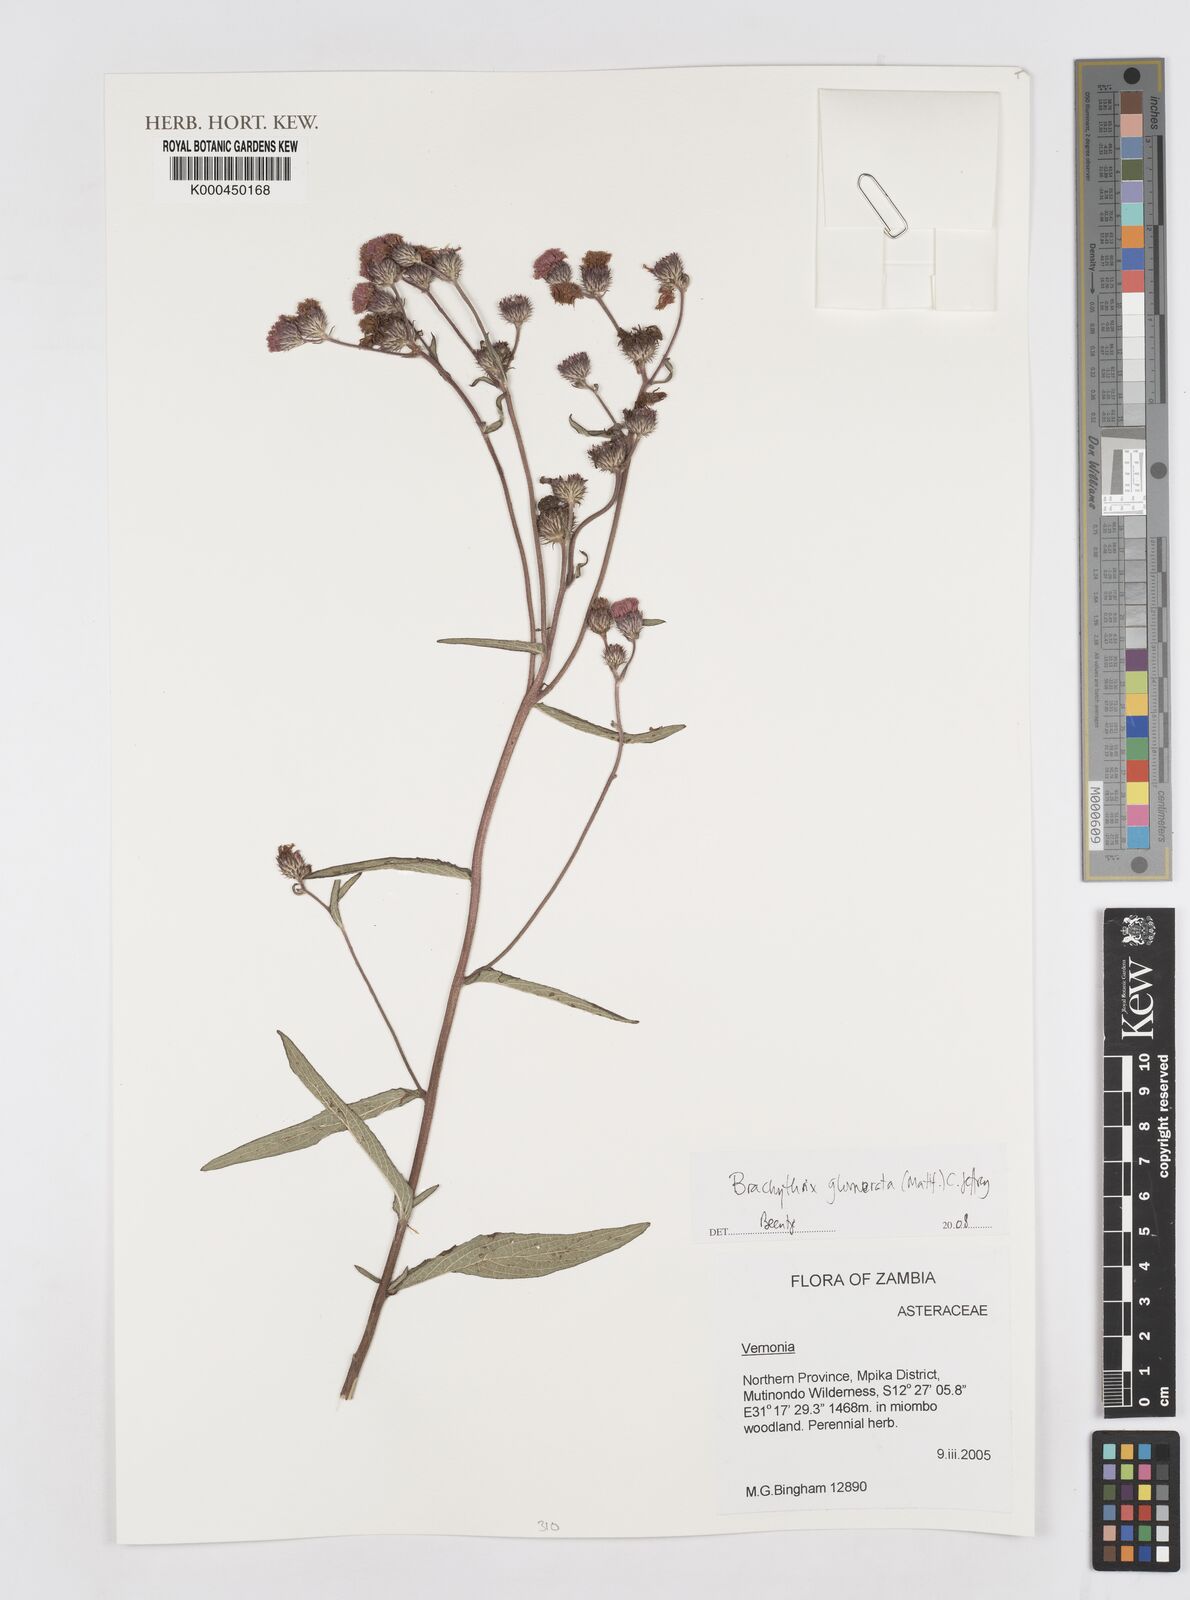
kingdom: Plantae
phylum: Tracheophyta
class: Magnoliopsida
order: Asterales
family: Asteraceae
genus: Brachythrix
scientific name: Brachythrix glomerata
